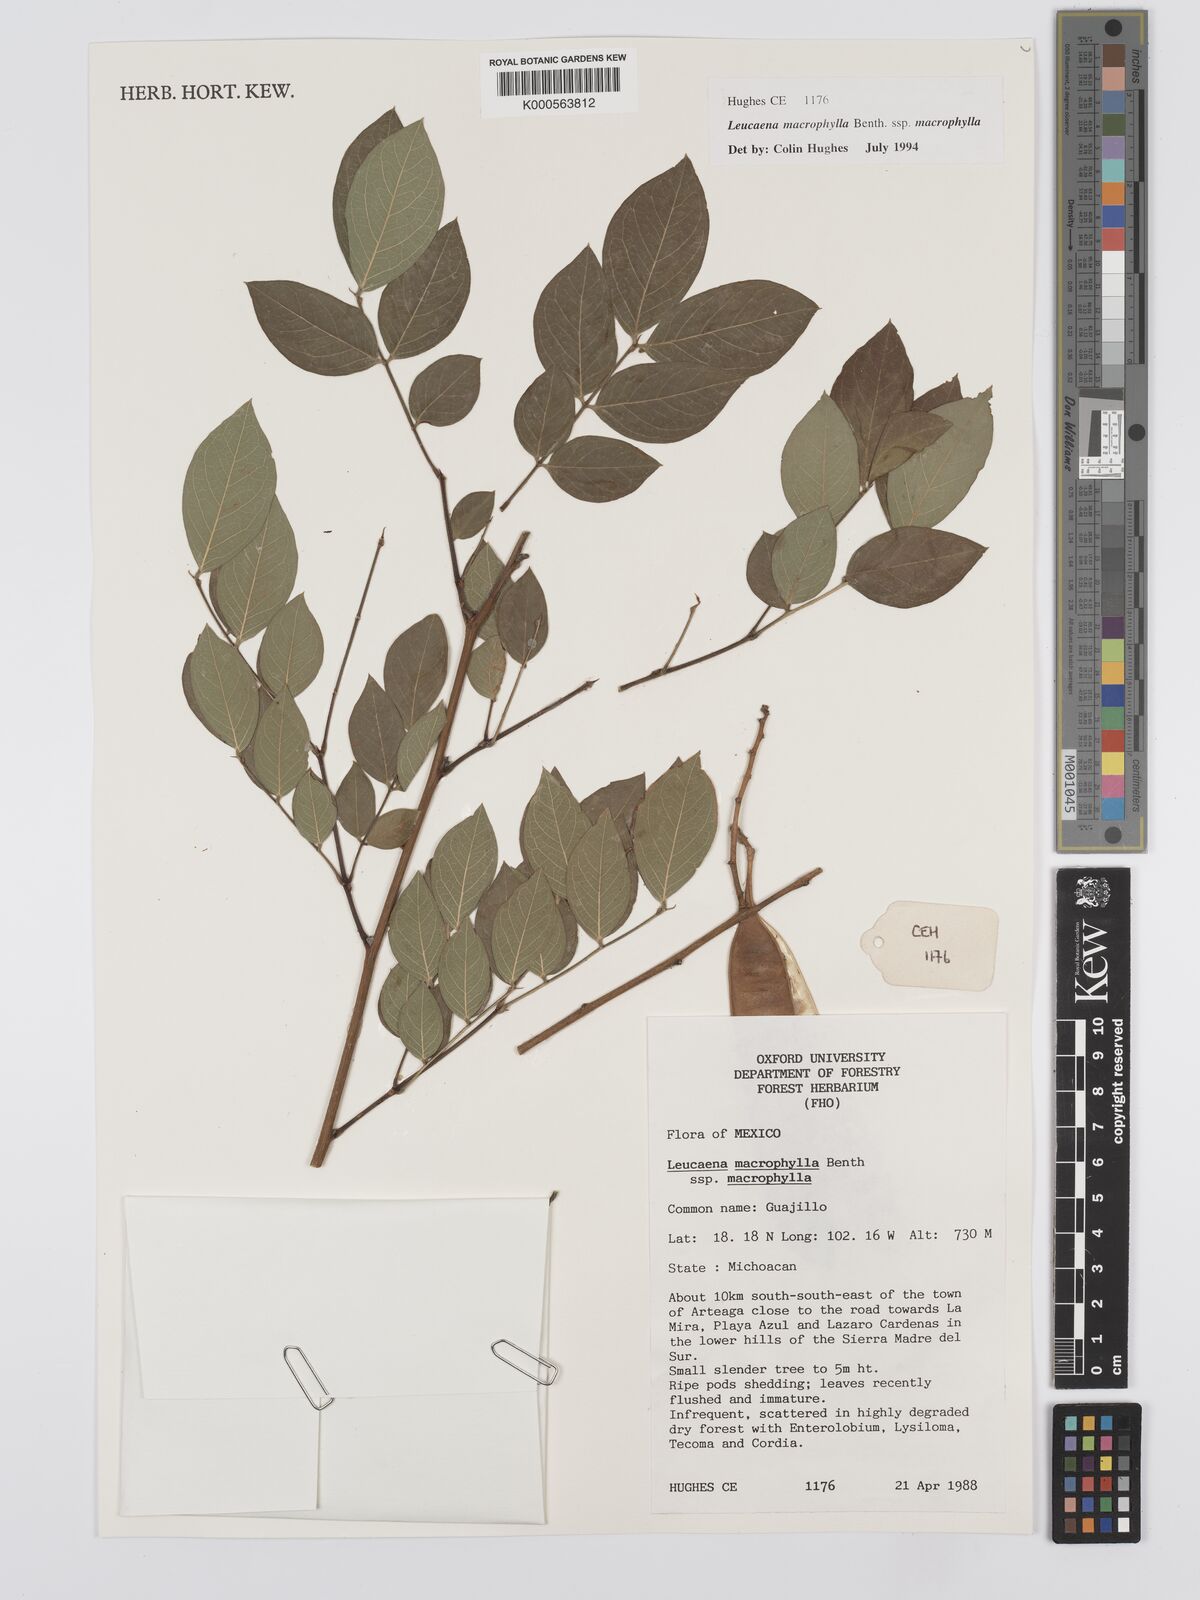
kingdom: Plantae
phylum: Tracheophyta
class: Magnoliopsida
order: Fabales
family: Fabaceae
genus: Leucaena
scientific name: Leucaena macrophylla
